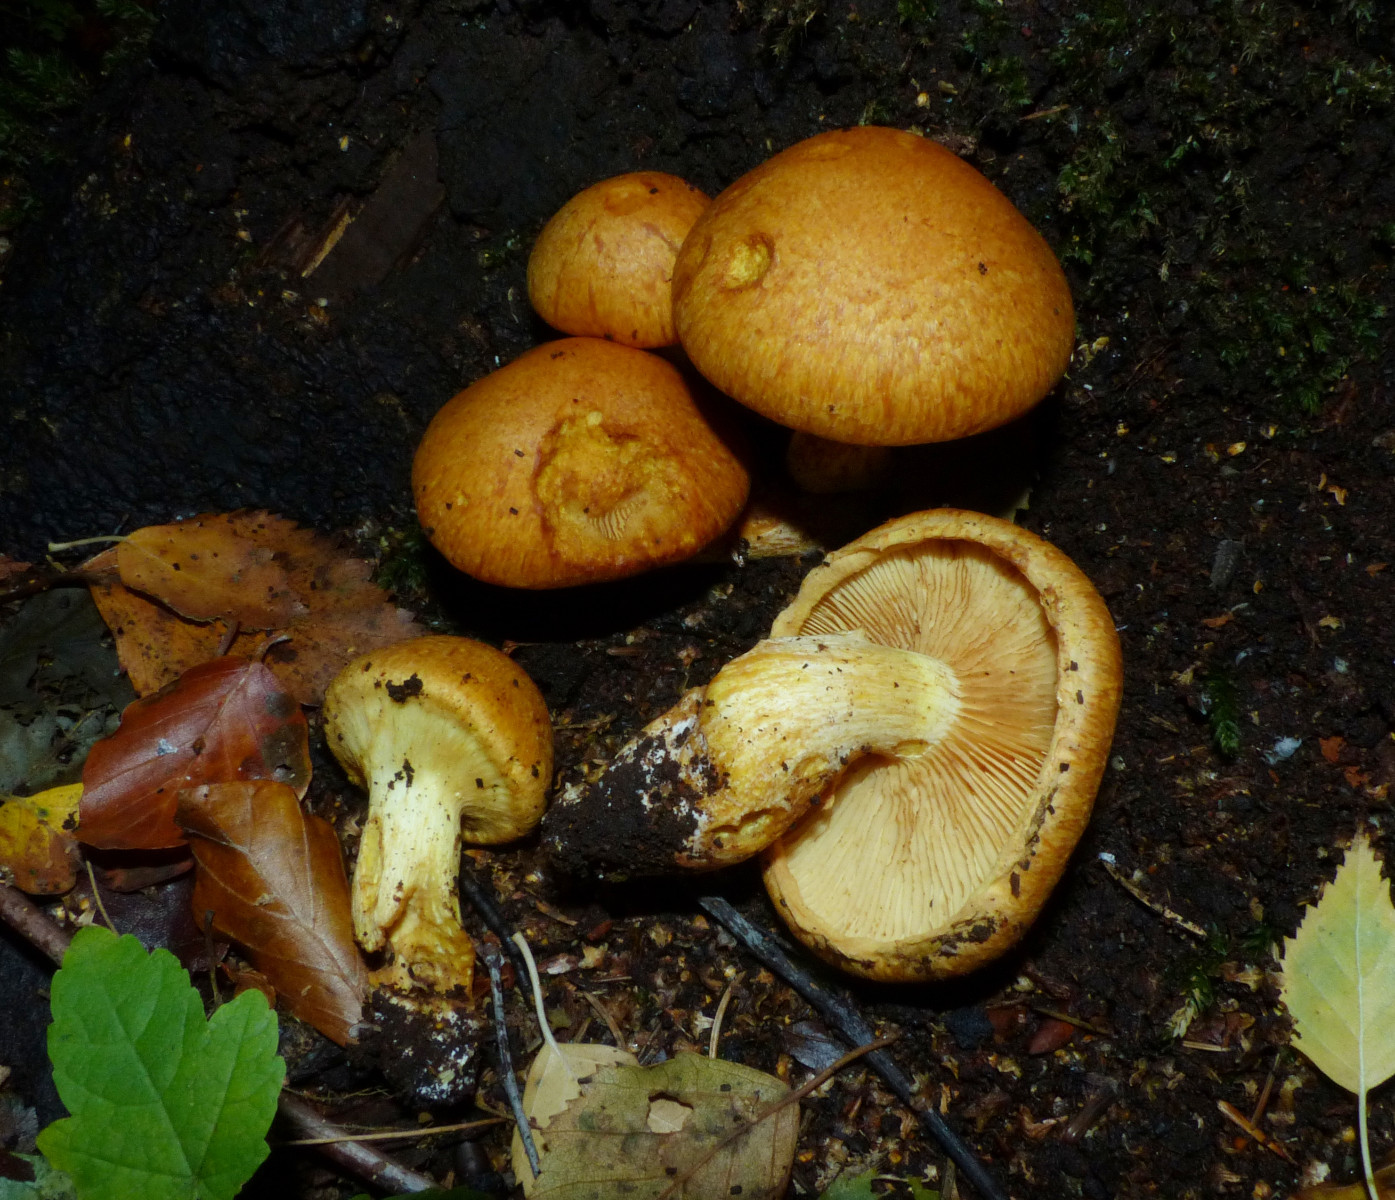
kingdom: Fungi
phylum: Basidiomycota
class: Agaricomycetes
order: Agaricales
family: Hymenogastraceae
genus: Gymnopilus
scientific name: Gymnopilus spectabilis
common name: fibret flammehat
